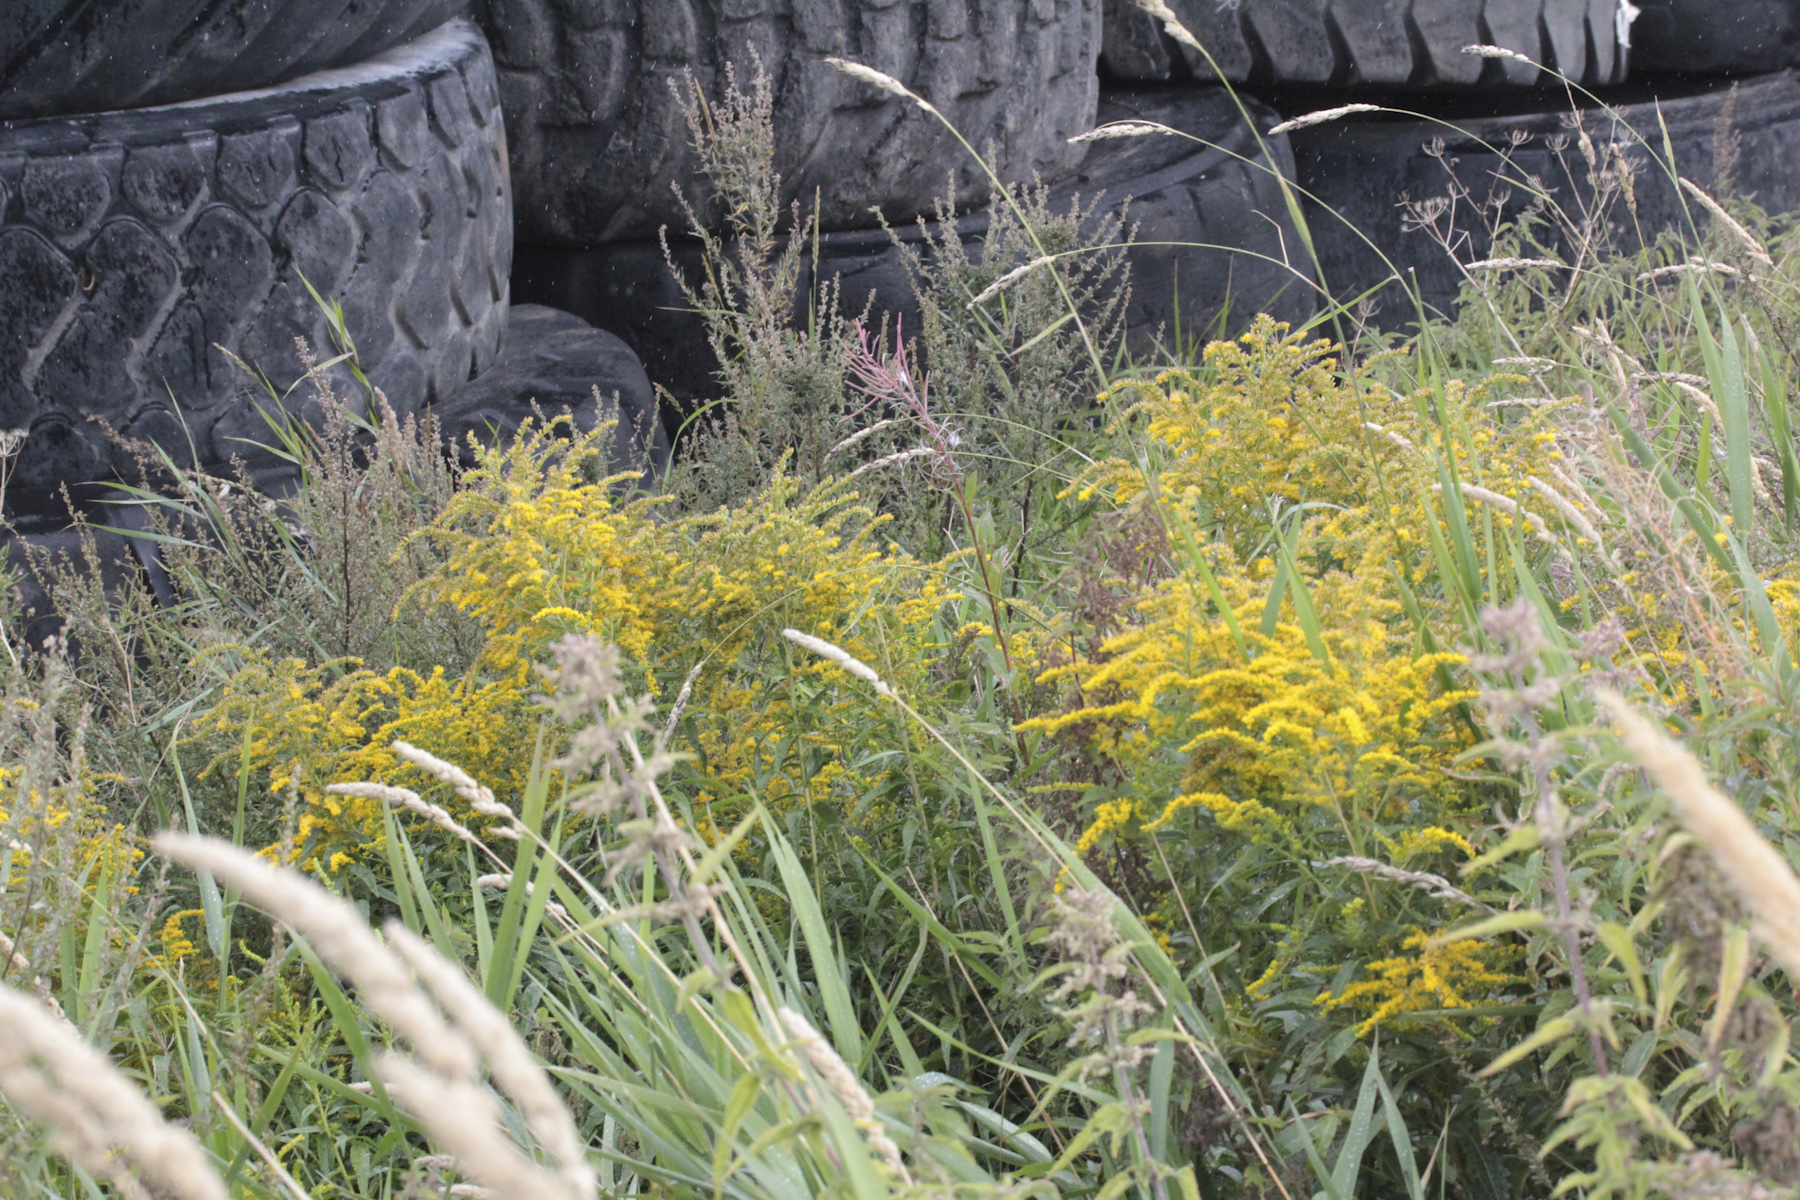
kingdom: Plantae
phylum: Tracheophyta
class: Magnoliopsida
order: Asterales
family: Asteraceae
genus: Solidago
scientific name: Solidago canadensis
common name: Canada goldenrod
